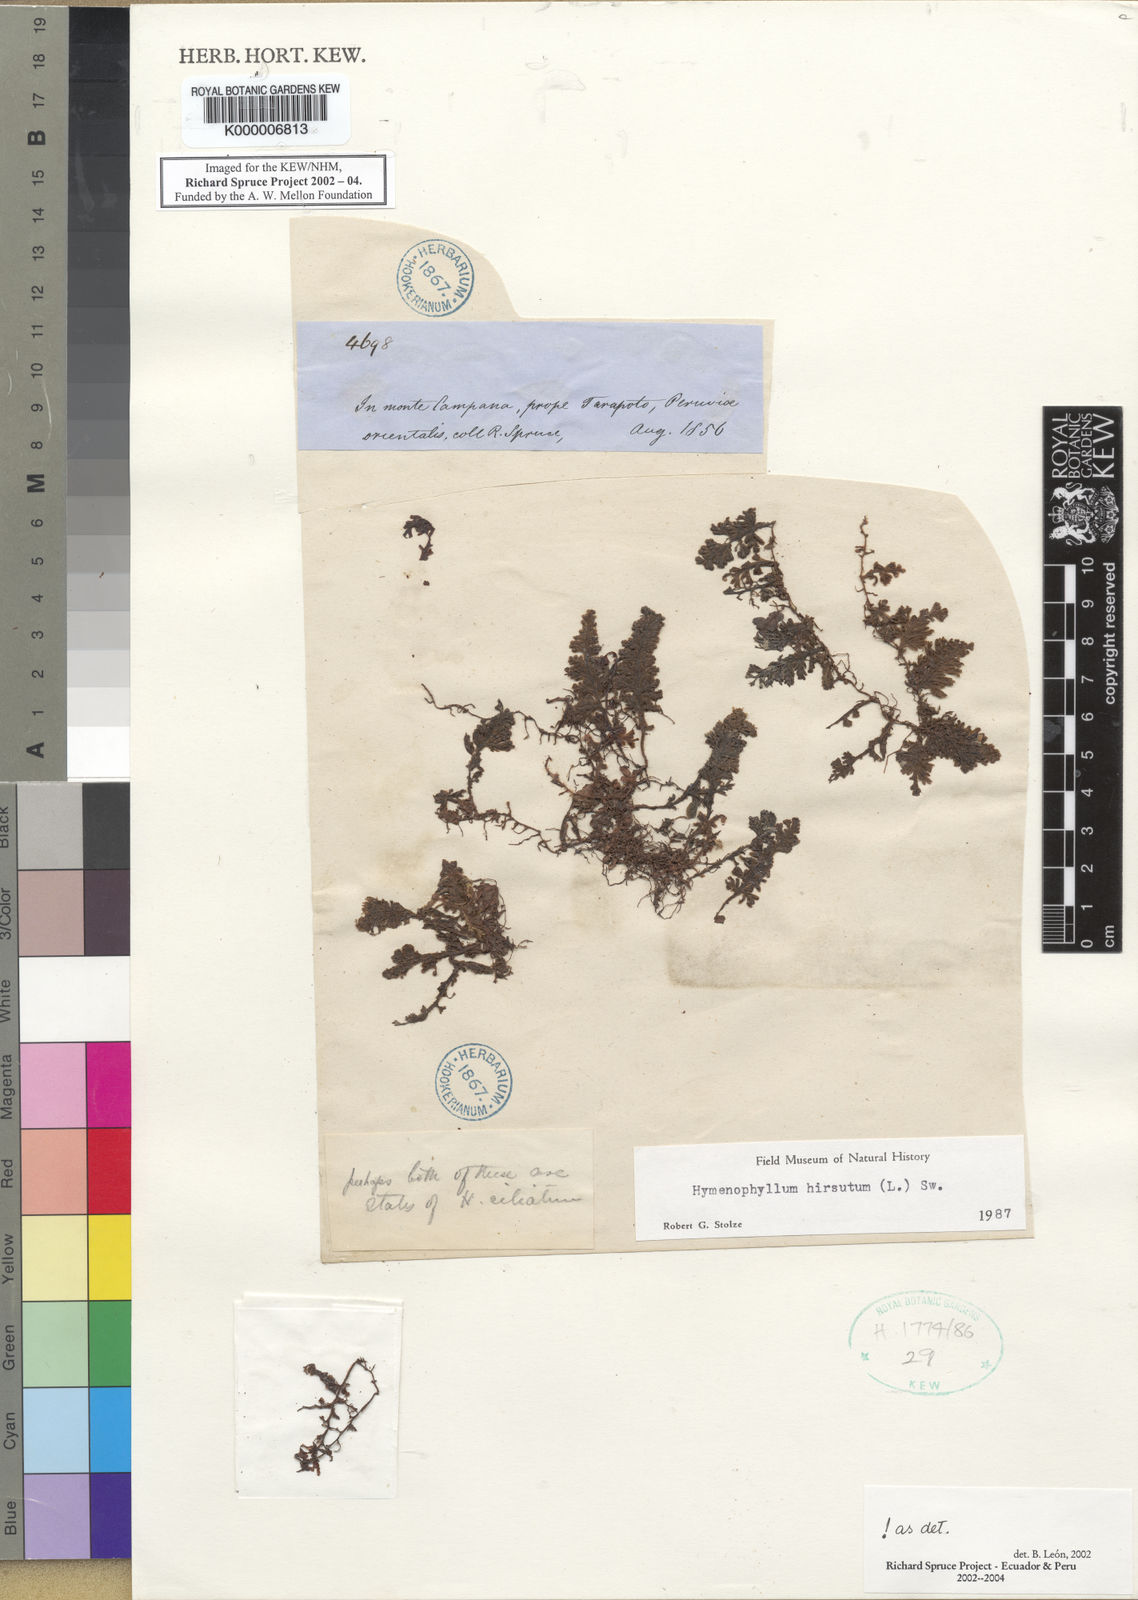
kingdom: Plantae
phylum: Tracheophyta
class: Polypodiopsida
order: Hymenophyllales
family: Hymenophyllaceae
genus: Hymenophyllum
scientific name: Hymenophyllum hirsutum
